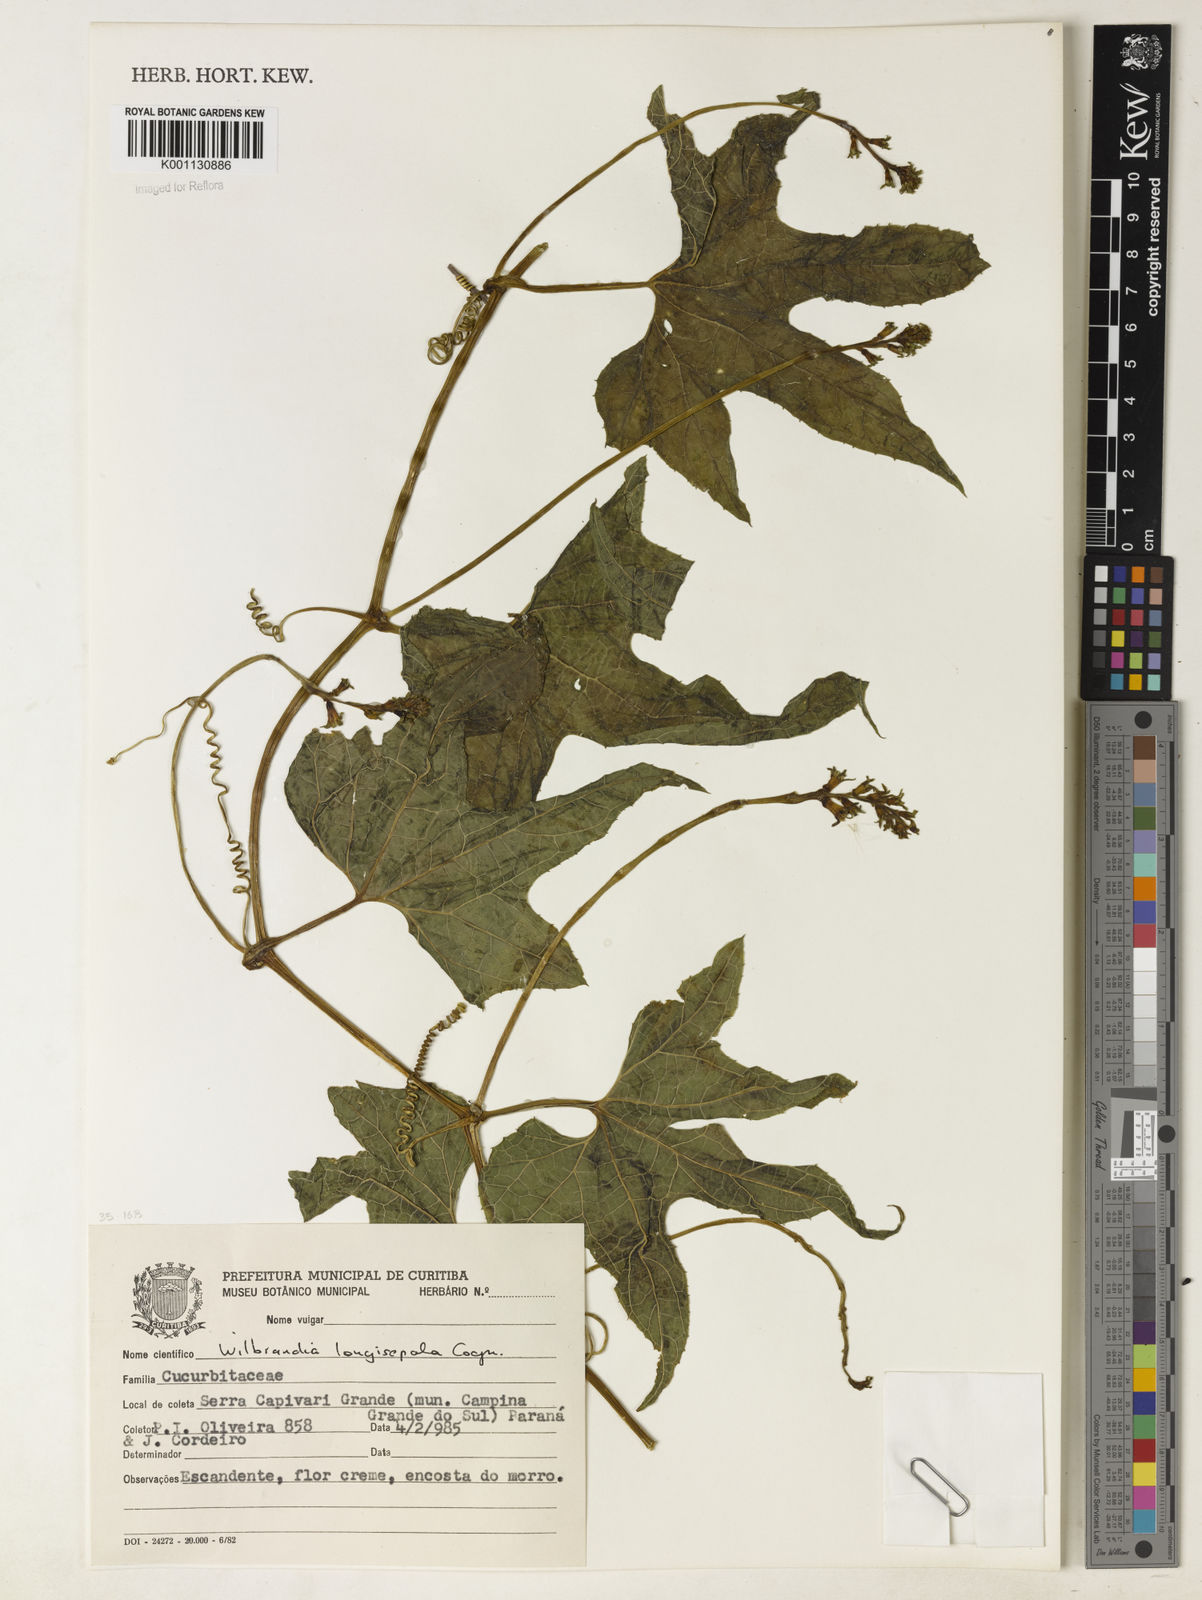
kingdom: Plantae
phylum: Tracheophyta
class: Magnoliopsida
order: Cucurbitales
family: Cucurbitaceae
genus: Wilbrandia
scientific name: Wilbrandia longisepala
